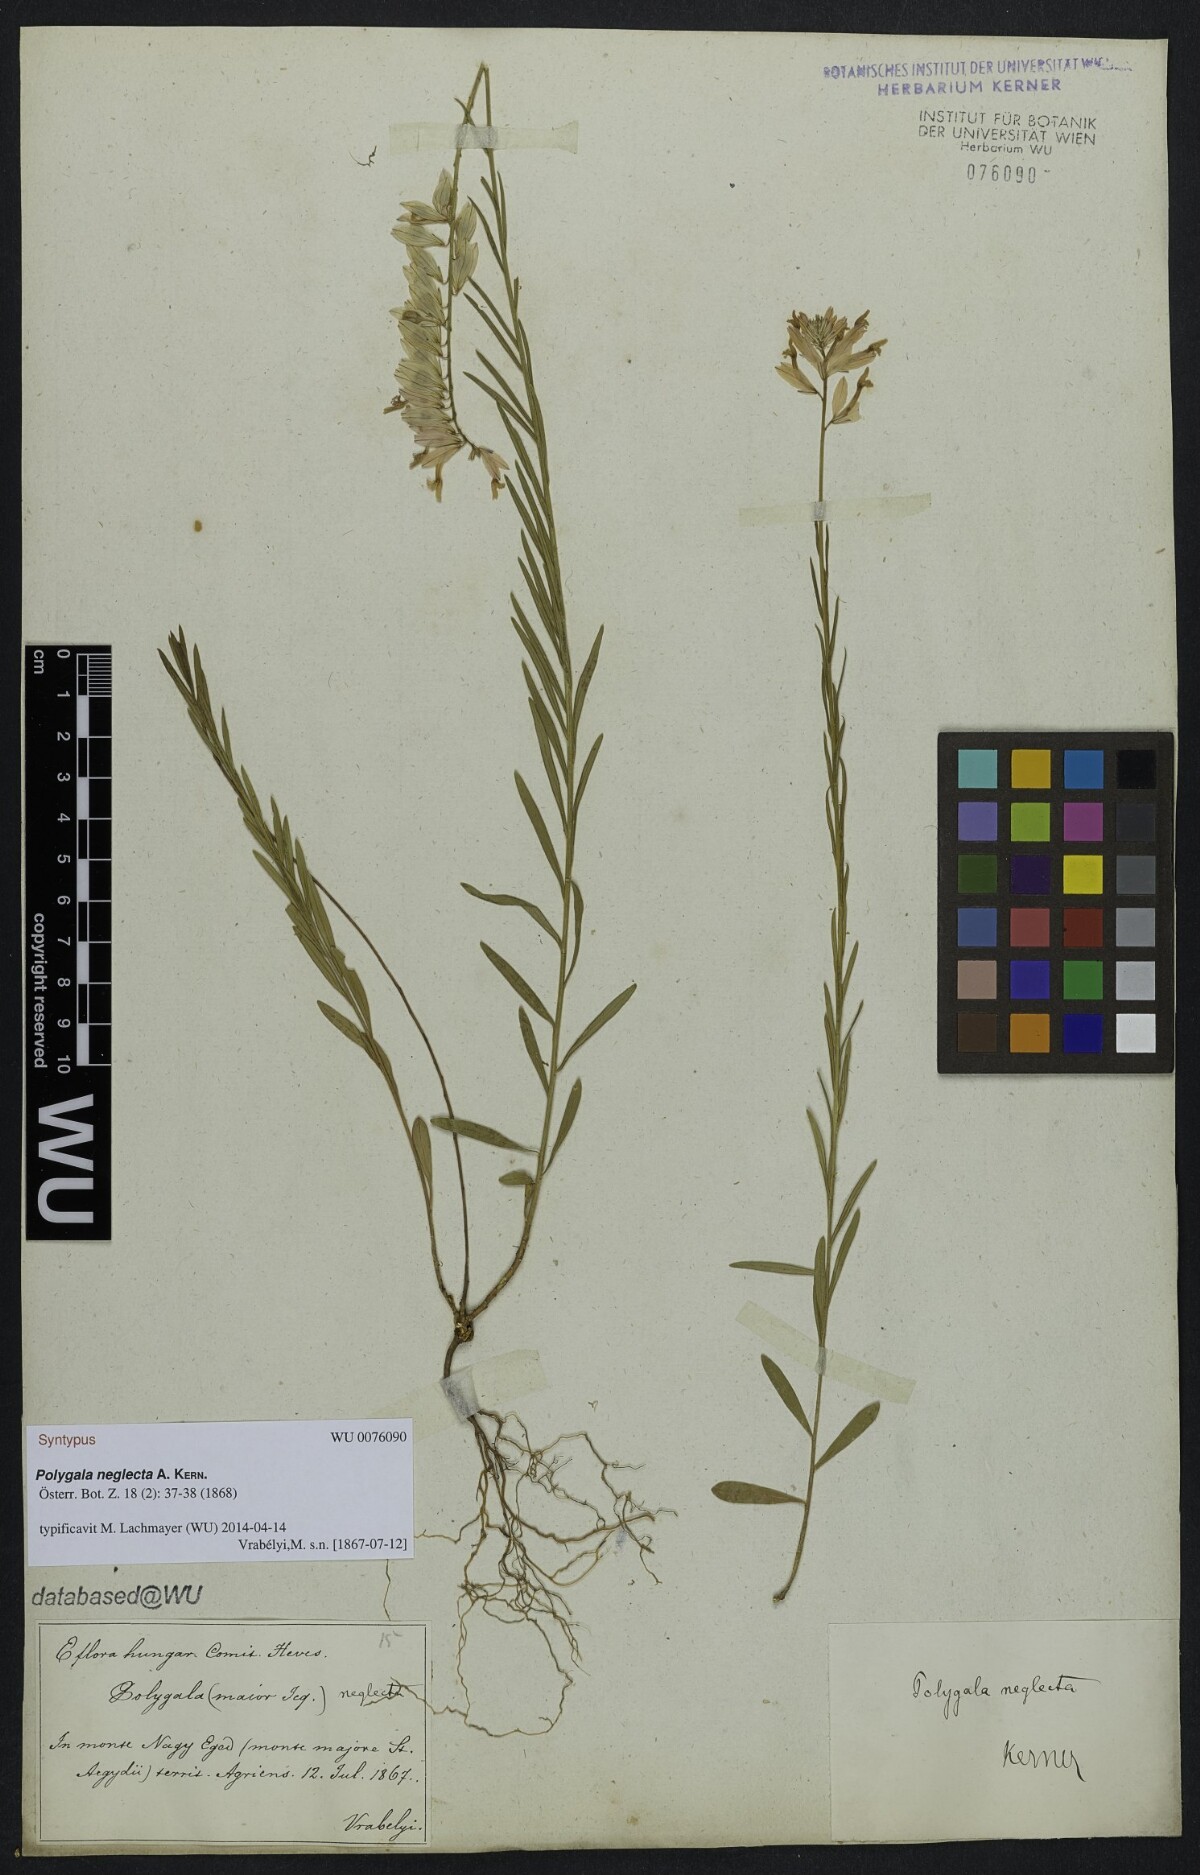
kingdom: Plantae
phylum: Tracheophyta
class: Magnoliopsida
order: Fabales
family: Polygalaceae
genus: Polygala
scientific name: Polygala major
